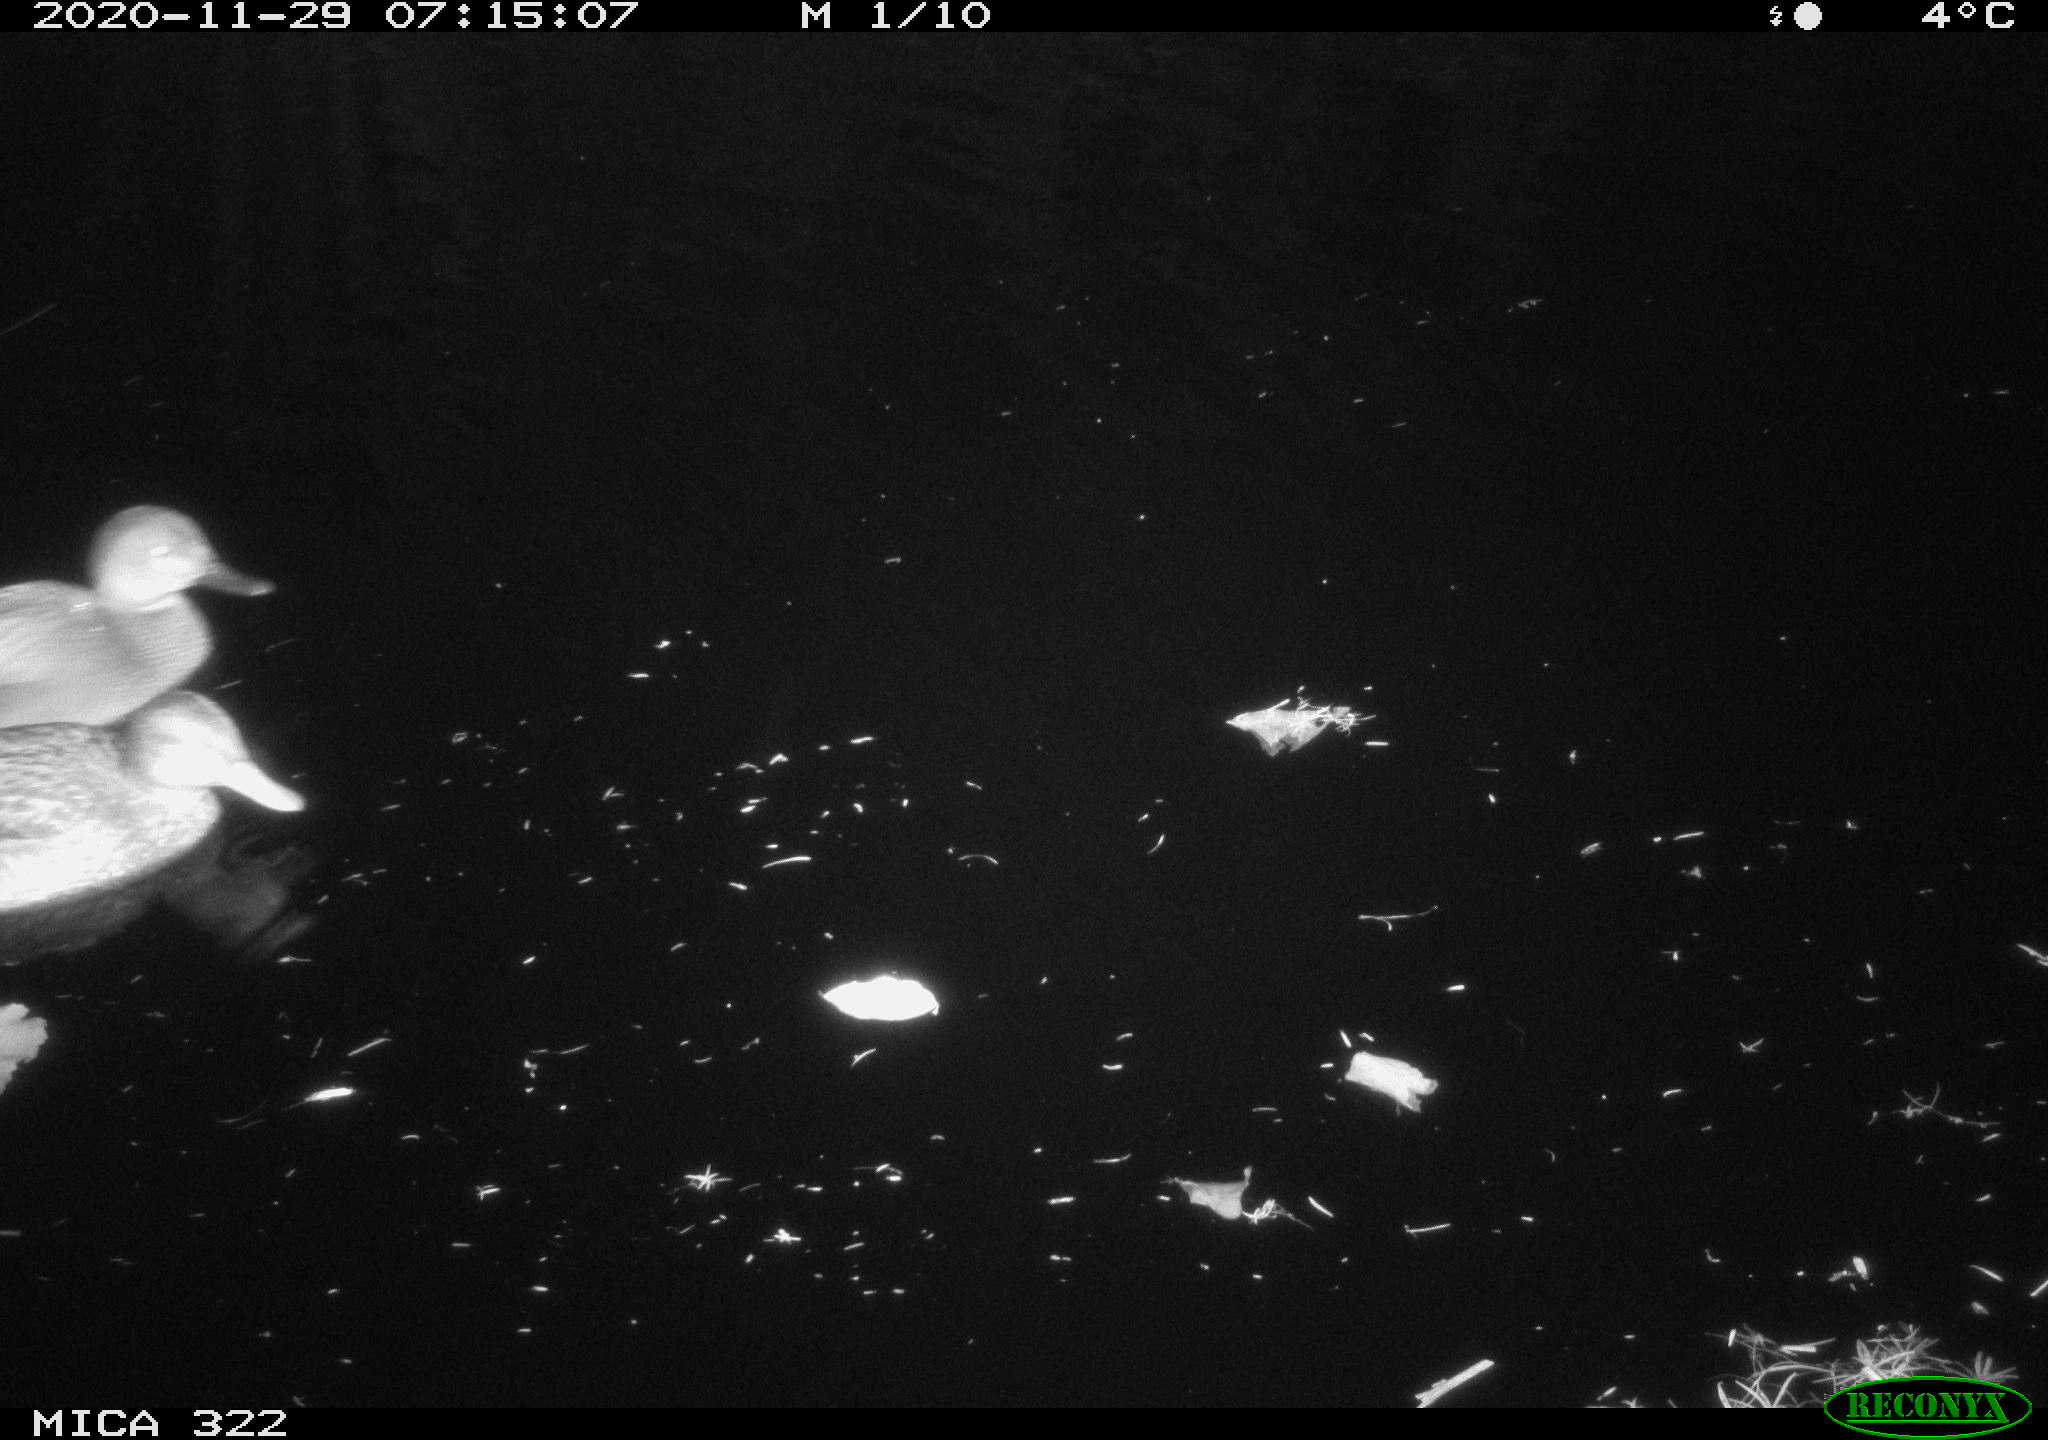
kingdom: Animalia
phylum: Chordata
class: Aves
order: Anseriformes
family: Anatidae
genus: Mareca
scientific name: Mareca strepera
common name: Gadwall
